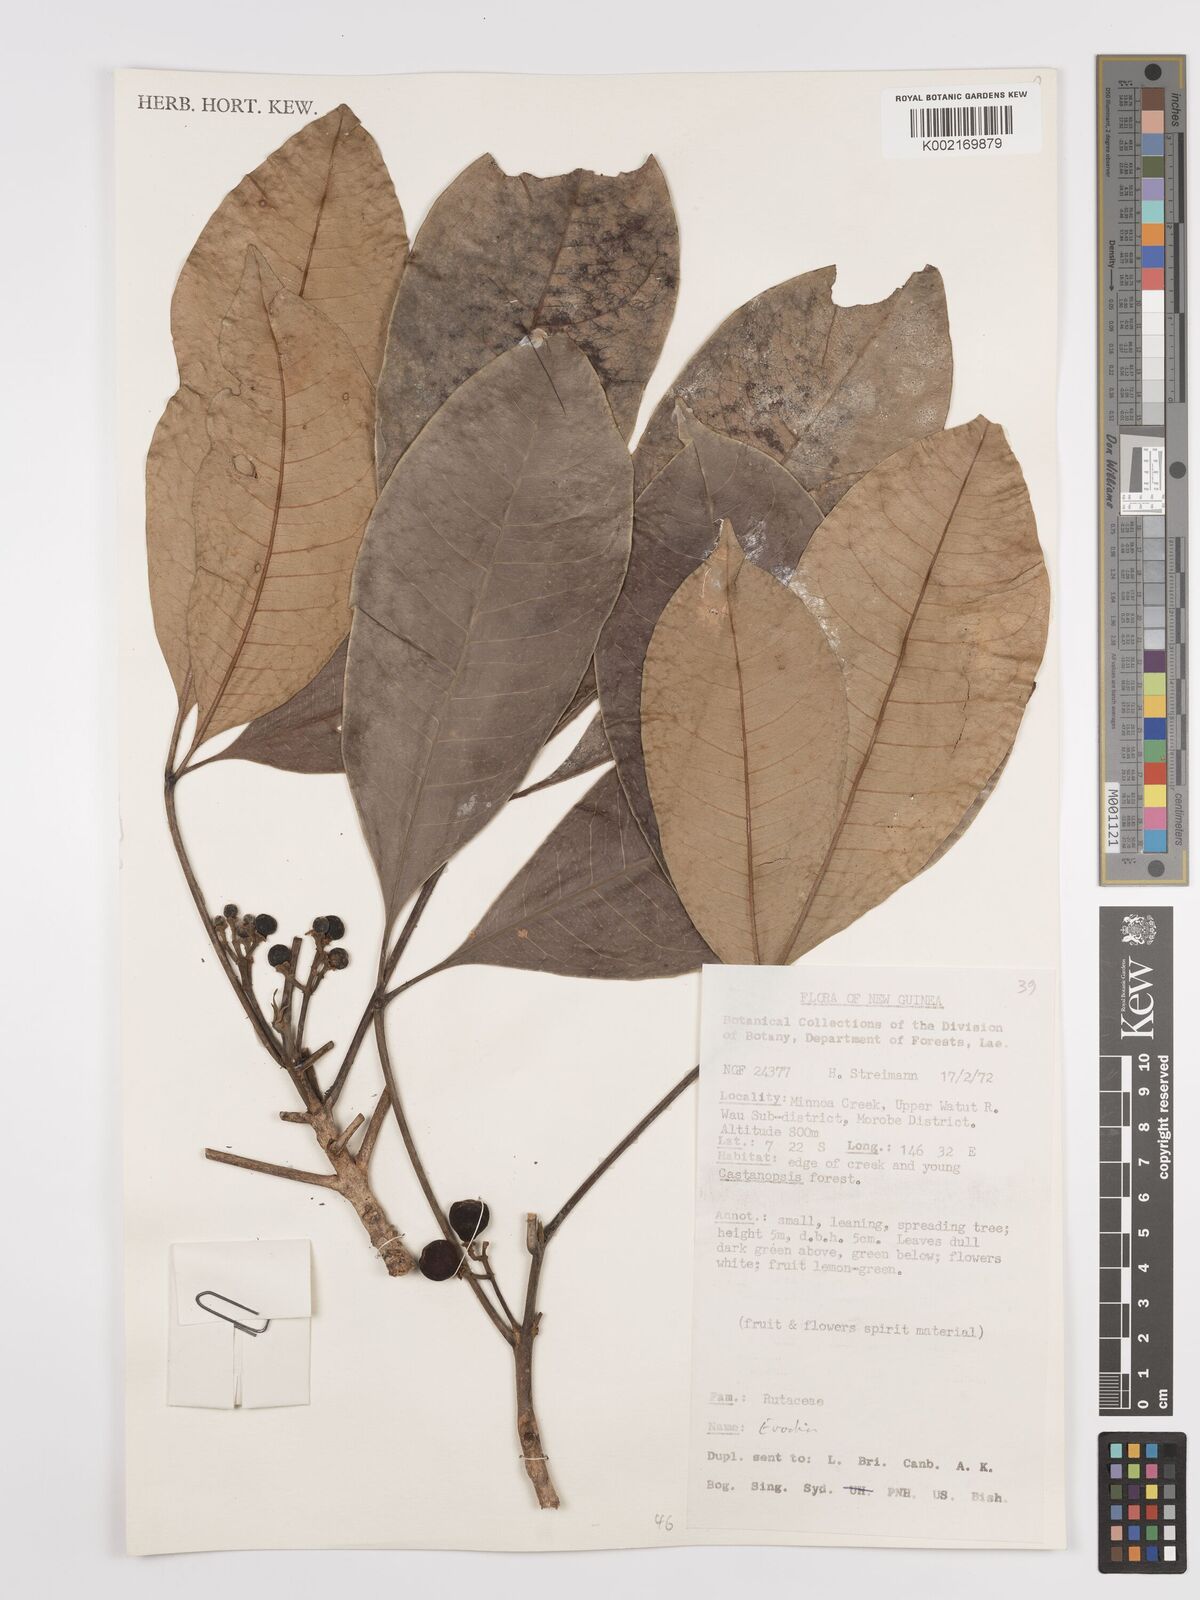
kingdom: Plantae
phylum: Tracheophyta
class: Magnoliopsida
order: Sapindales
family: Rutaceae
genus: Euodia
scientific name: Euodia
